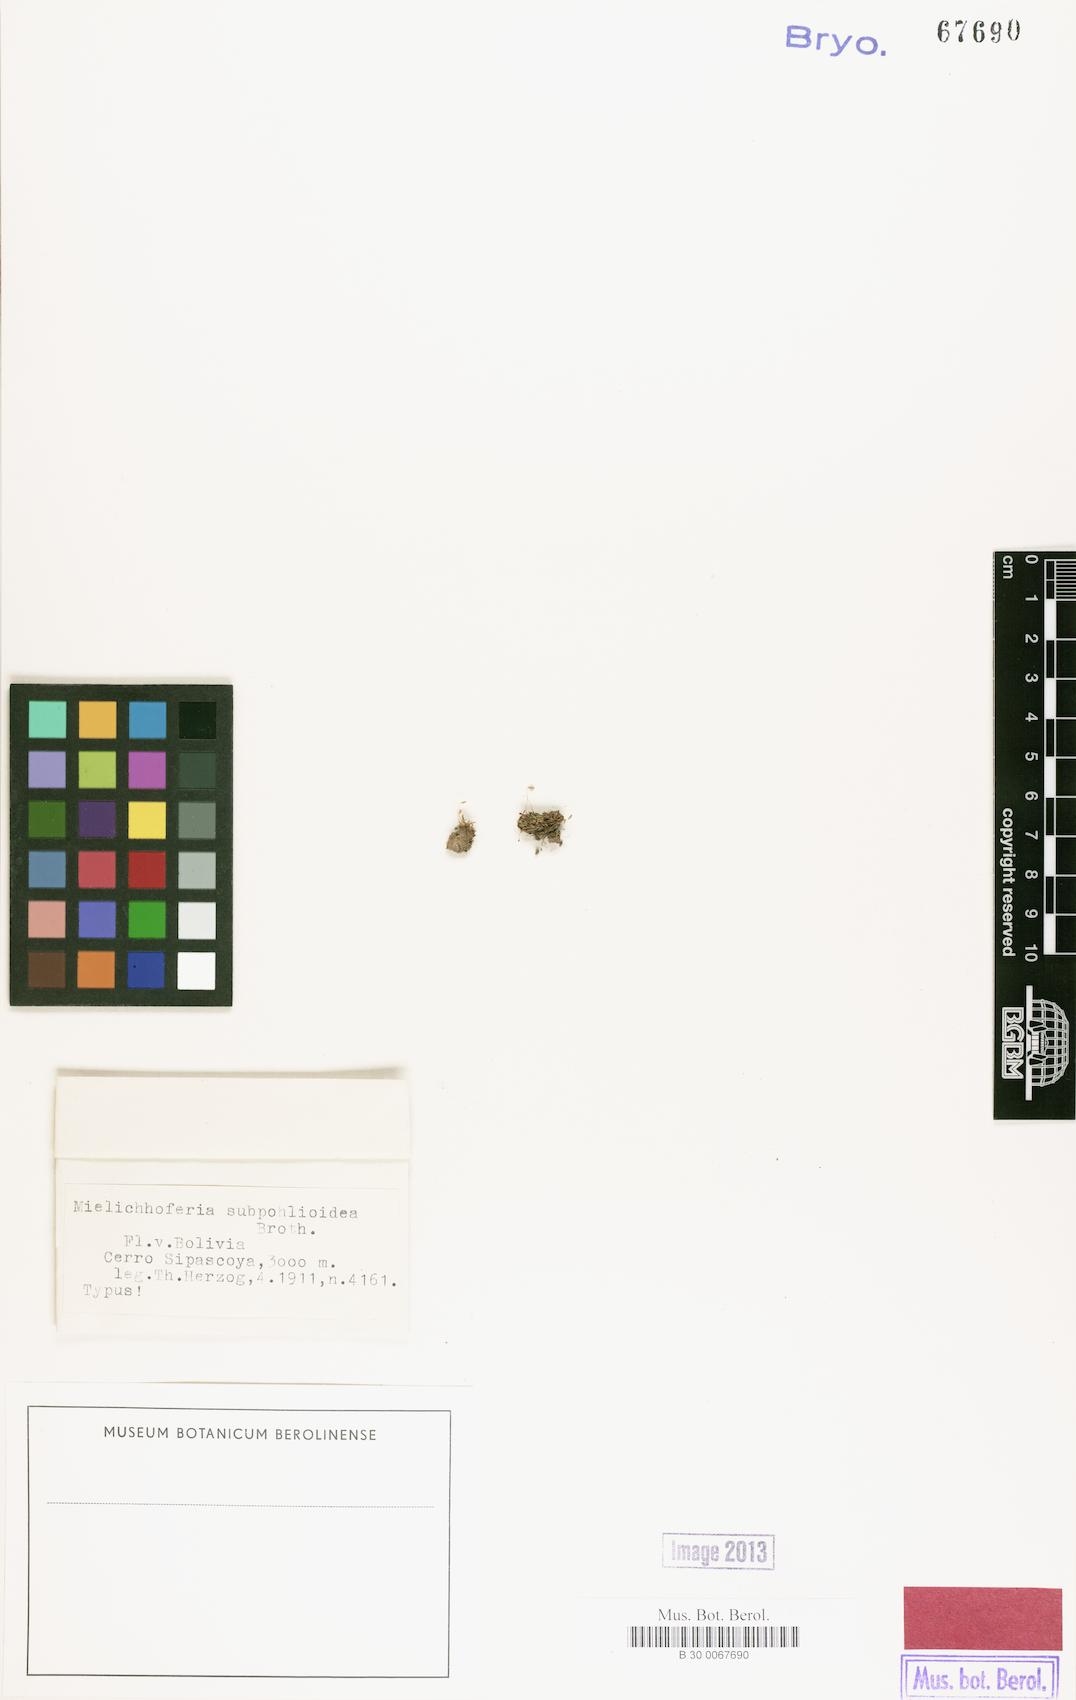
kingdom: Plantae
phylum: Bryophyta
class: Bryopsida
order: Bryales
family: Mniaceae
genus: Schizymenium
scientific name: Schizymenium subpohlioideum
